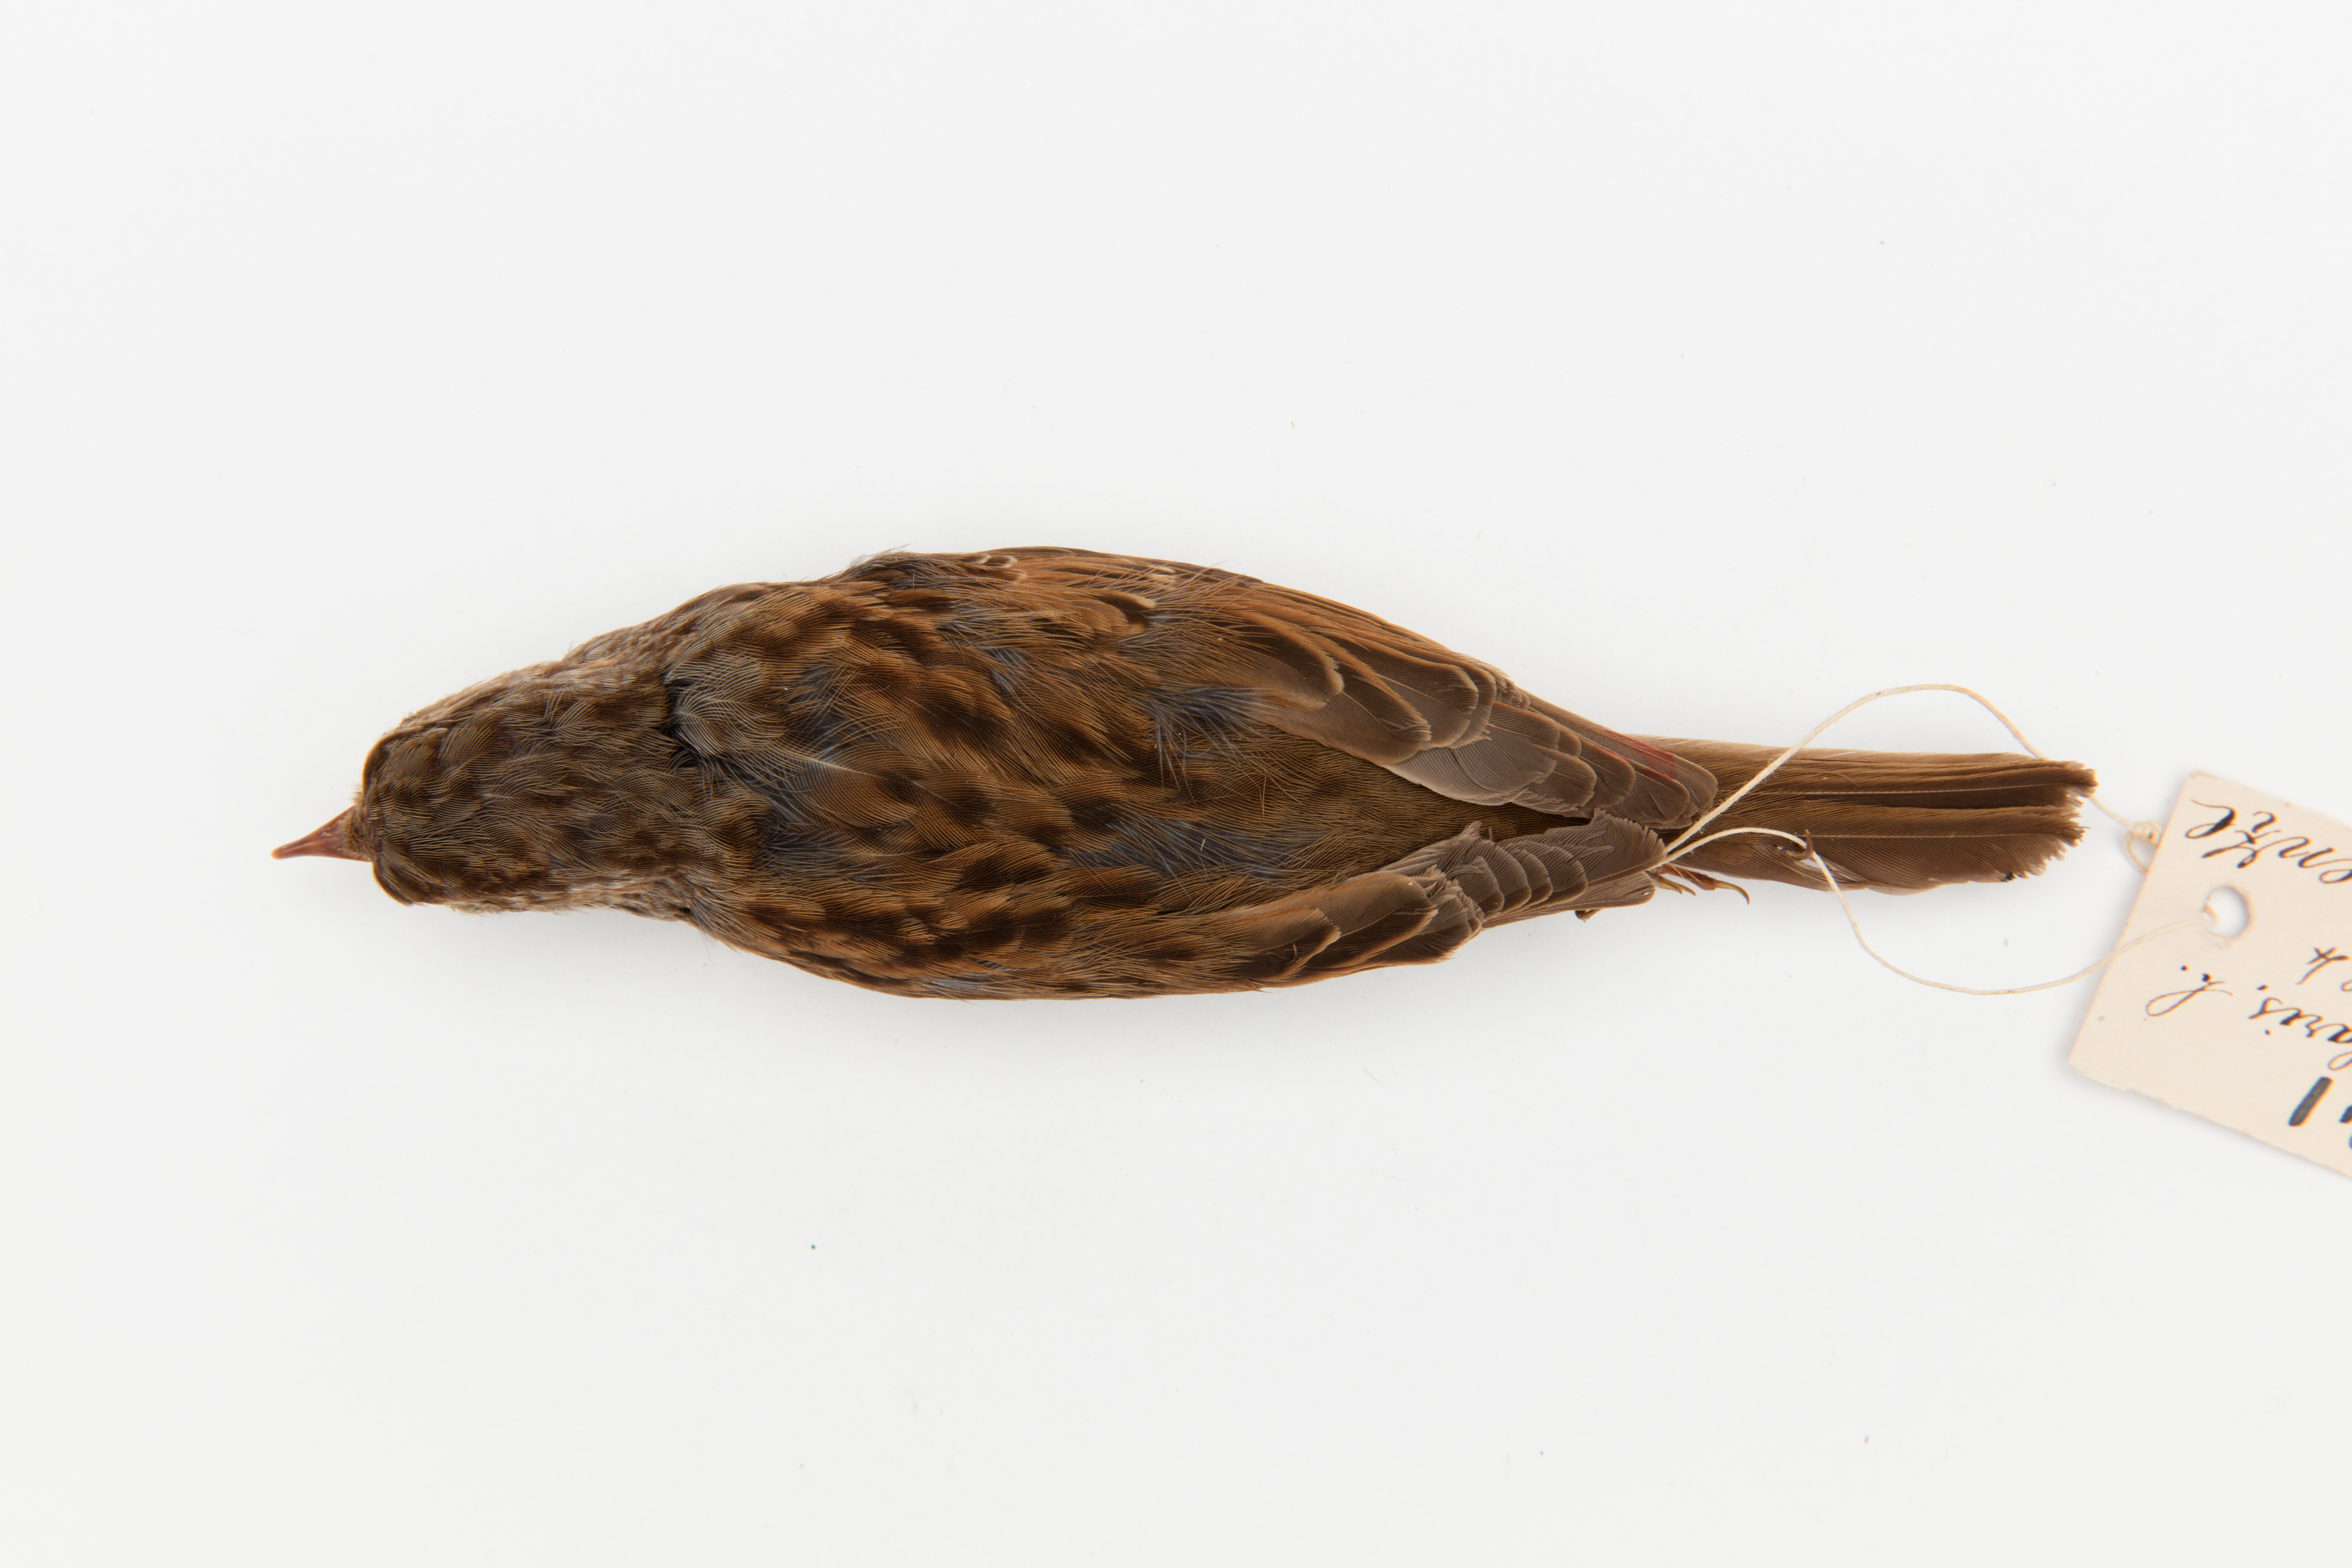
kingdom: Animalia
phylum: Chordata
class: Aves
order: Passeriformes
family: Prunellidae
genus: Prunella
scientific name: Prunella modularis
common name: Dunnock
